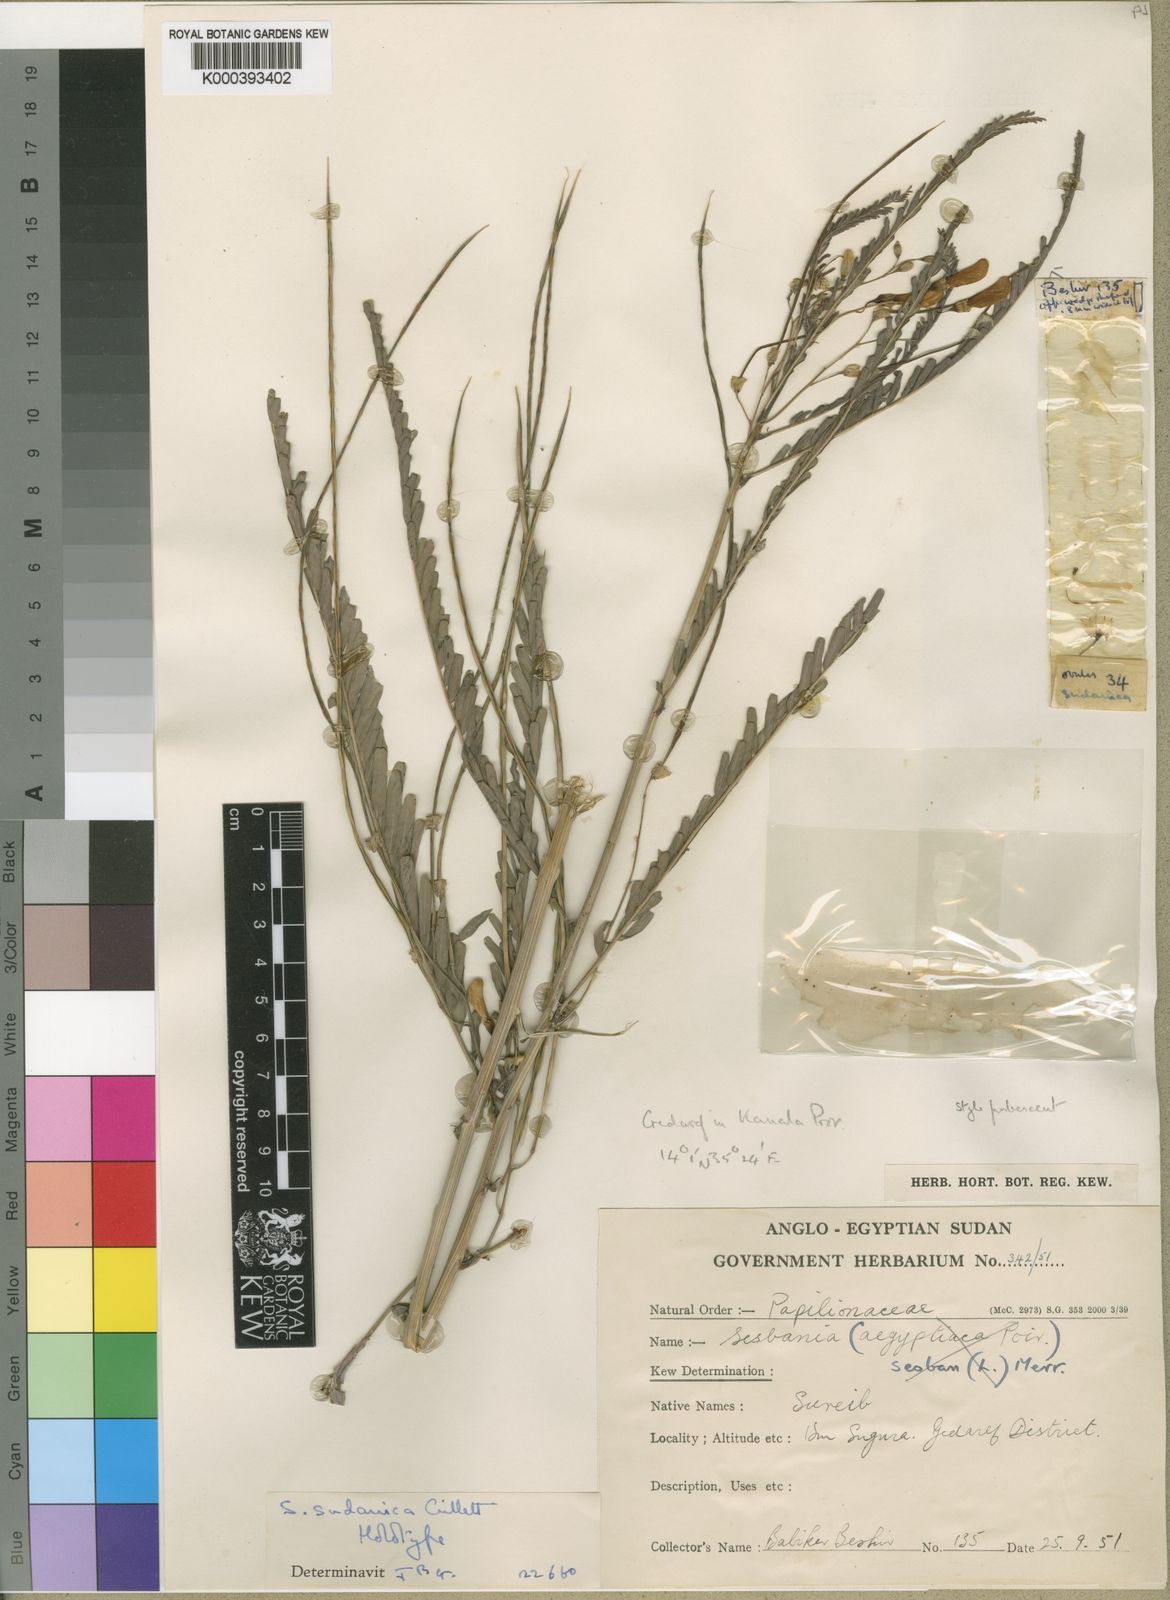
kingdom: Plantae
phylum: Tracheophyta
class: Magnoliopsida
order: Fabales
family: Fabaceae
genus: Sesbania
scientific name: Sesbania sudanica
